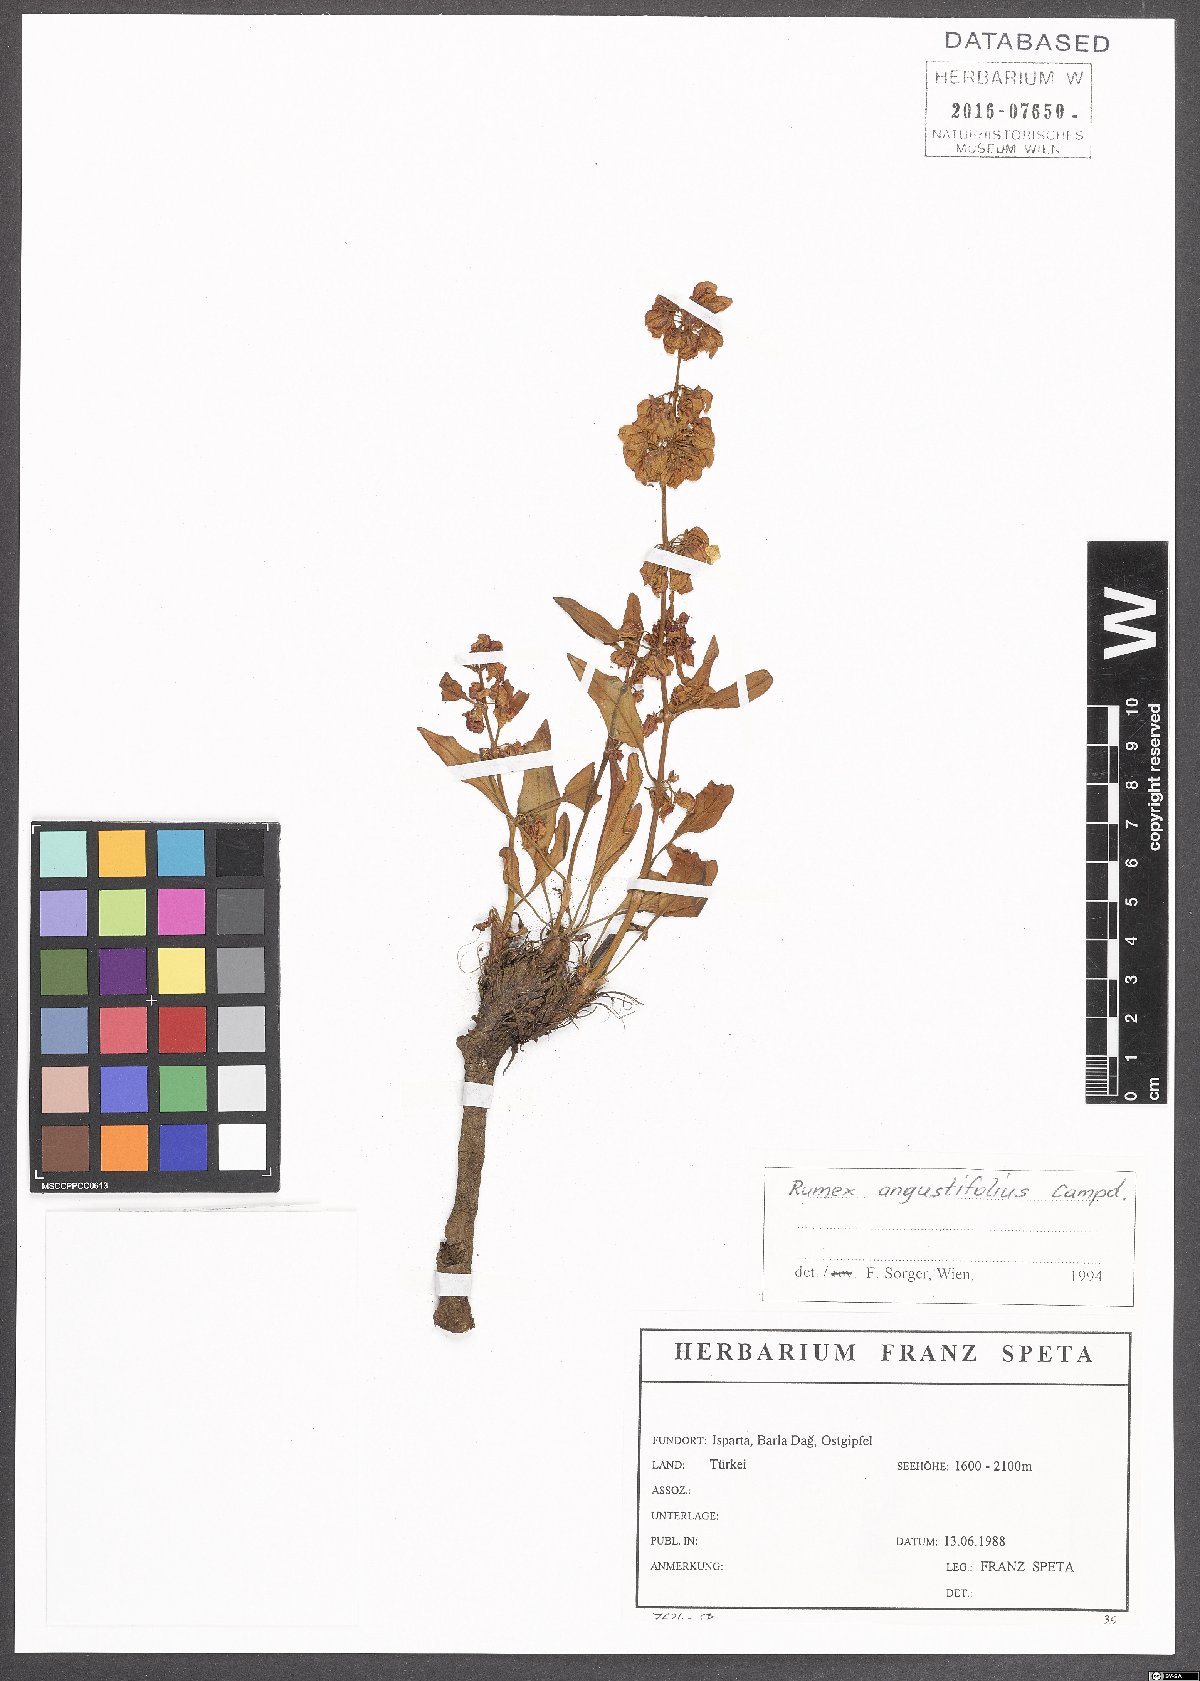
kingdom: Plantae
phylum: Tracheophyta
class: Magnoliopsida
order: Caryophyllales
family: Polygonaceae
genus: Rumex
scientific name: Rumex angustifolius
